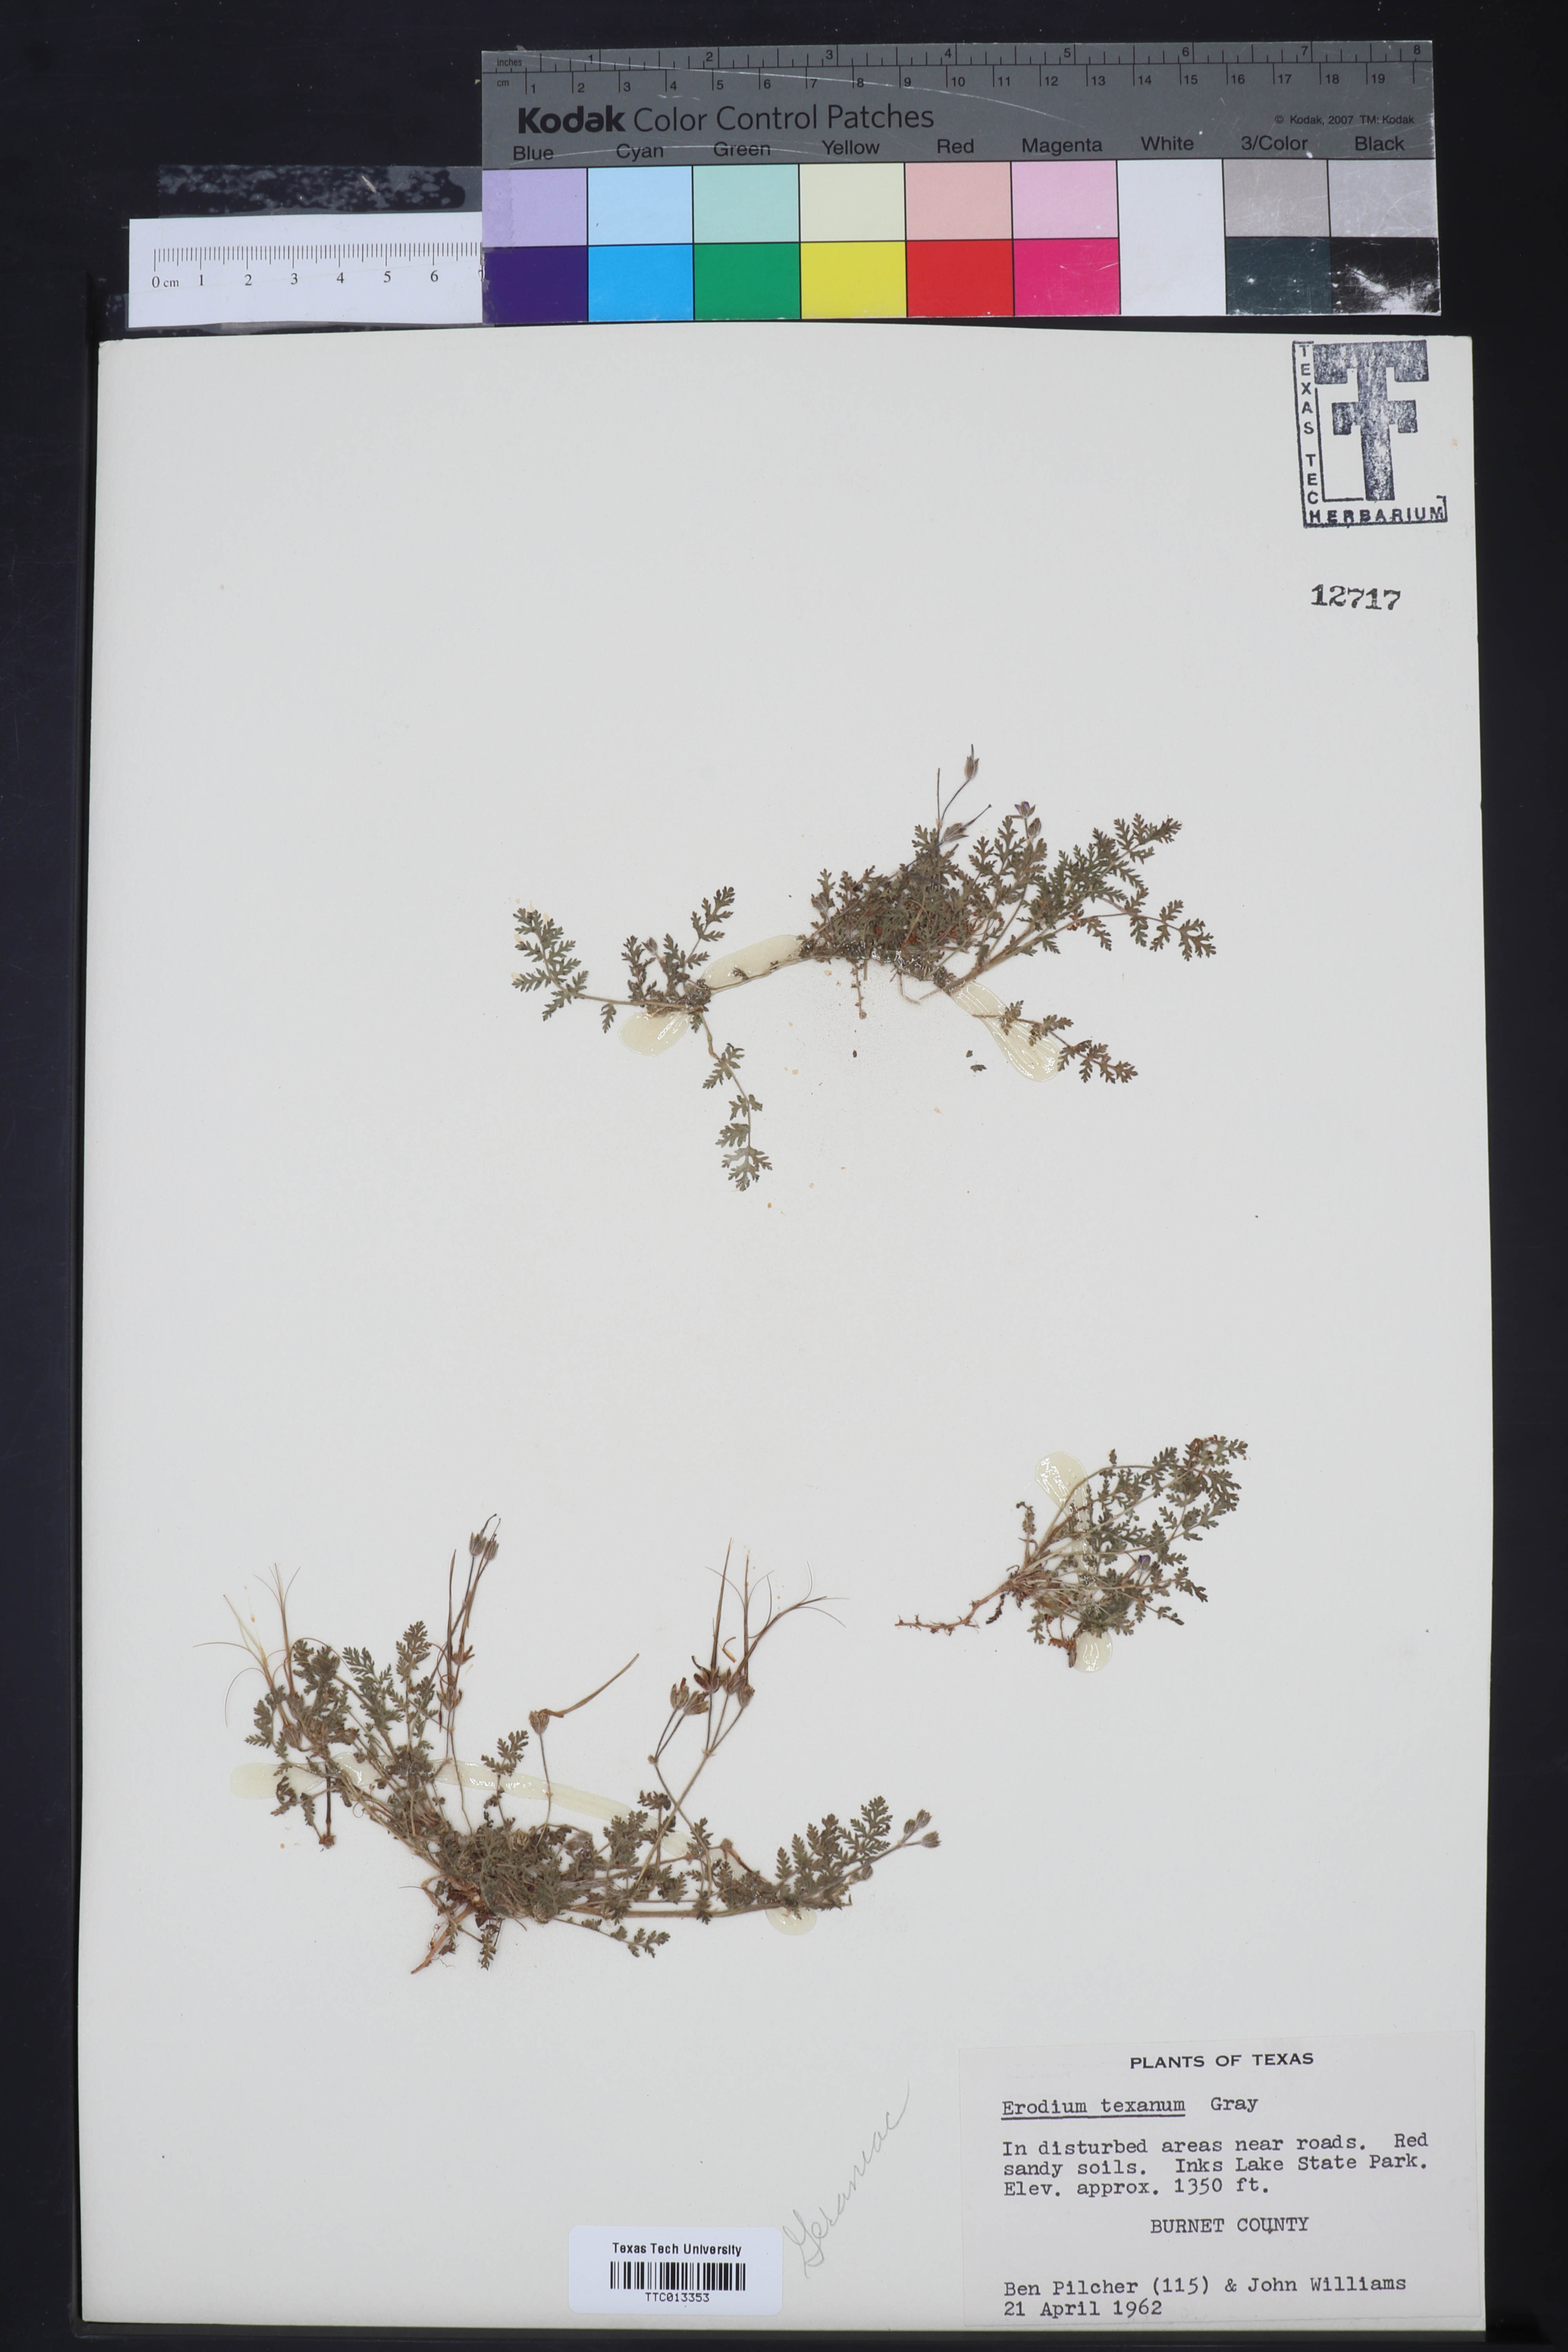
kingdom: Plantae
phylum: Tracheophyta
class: Magnoliopsida
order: Geraniales
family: Geraniaceae
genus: Erodium
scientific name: Erodium texanum
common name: Texas stork's-bill
